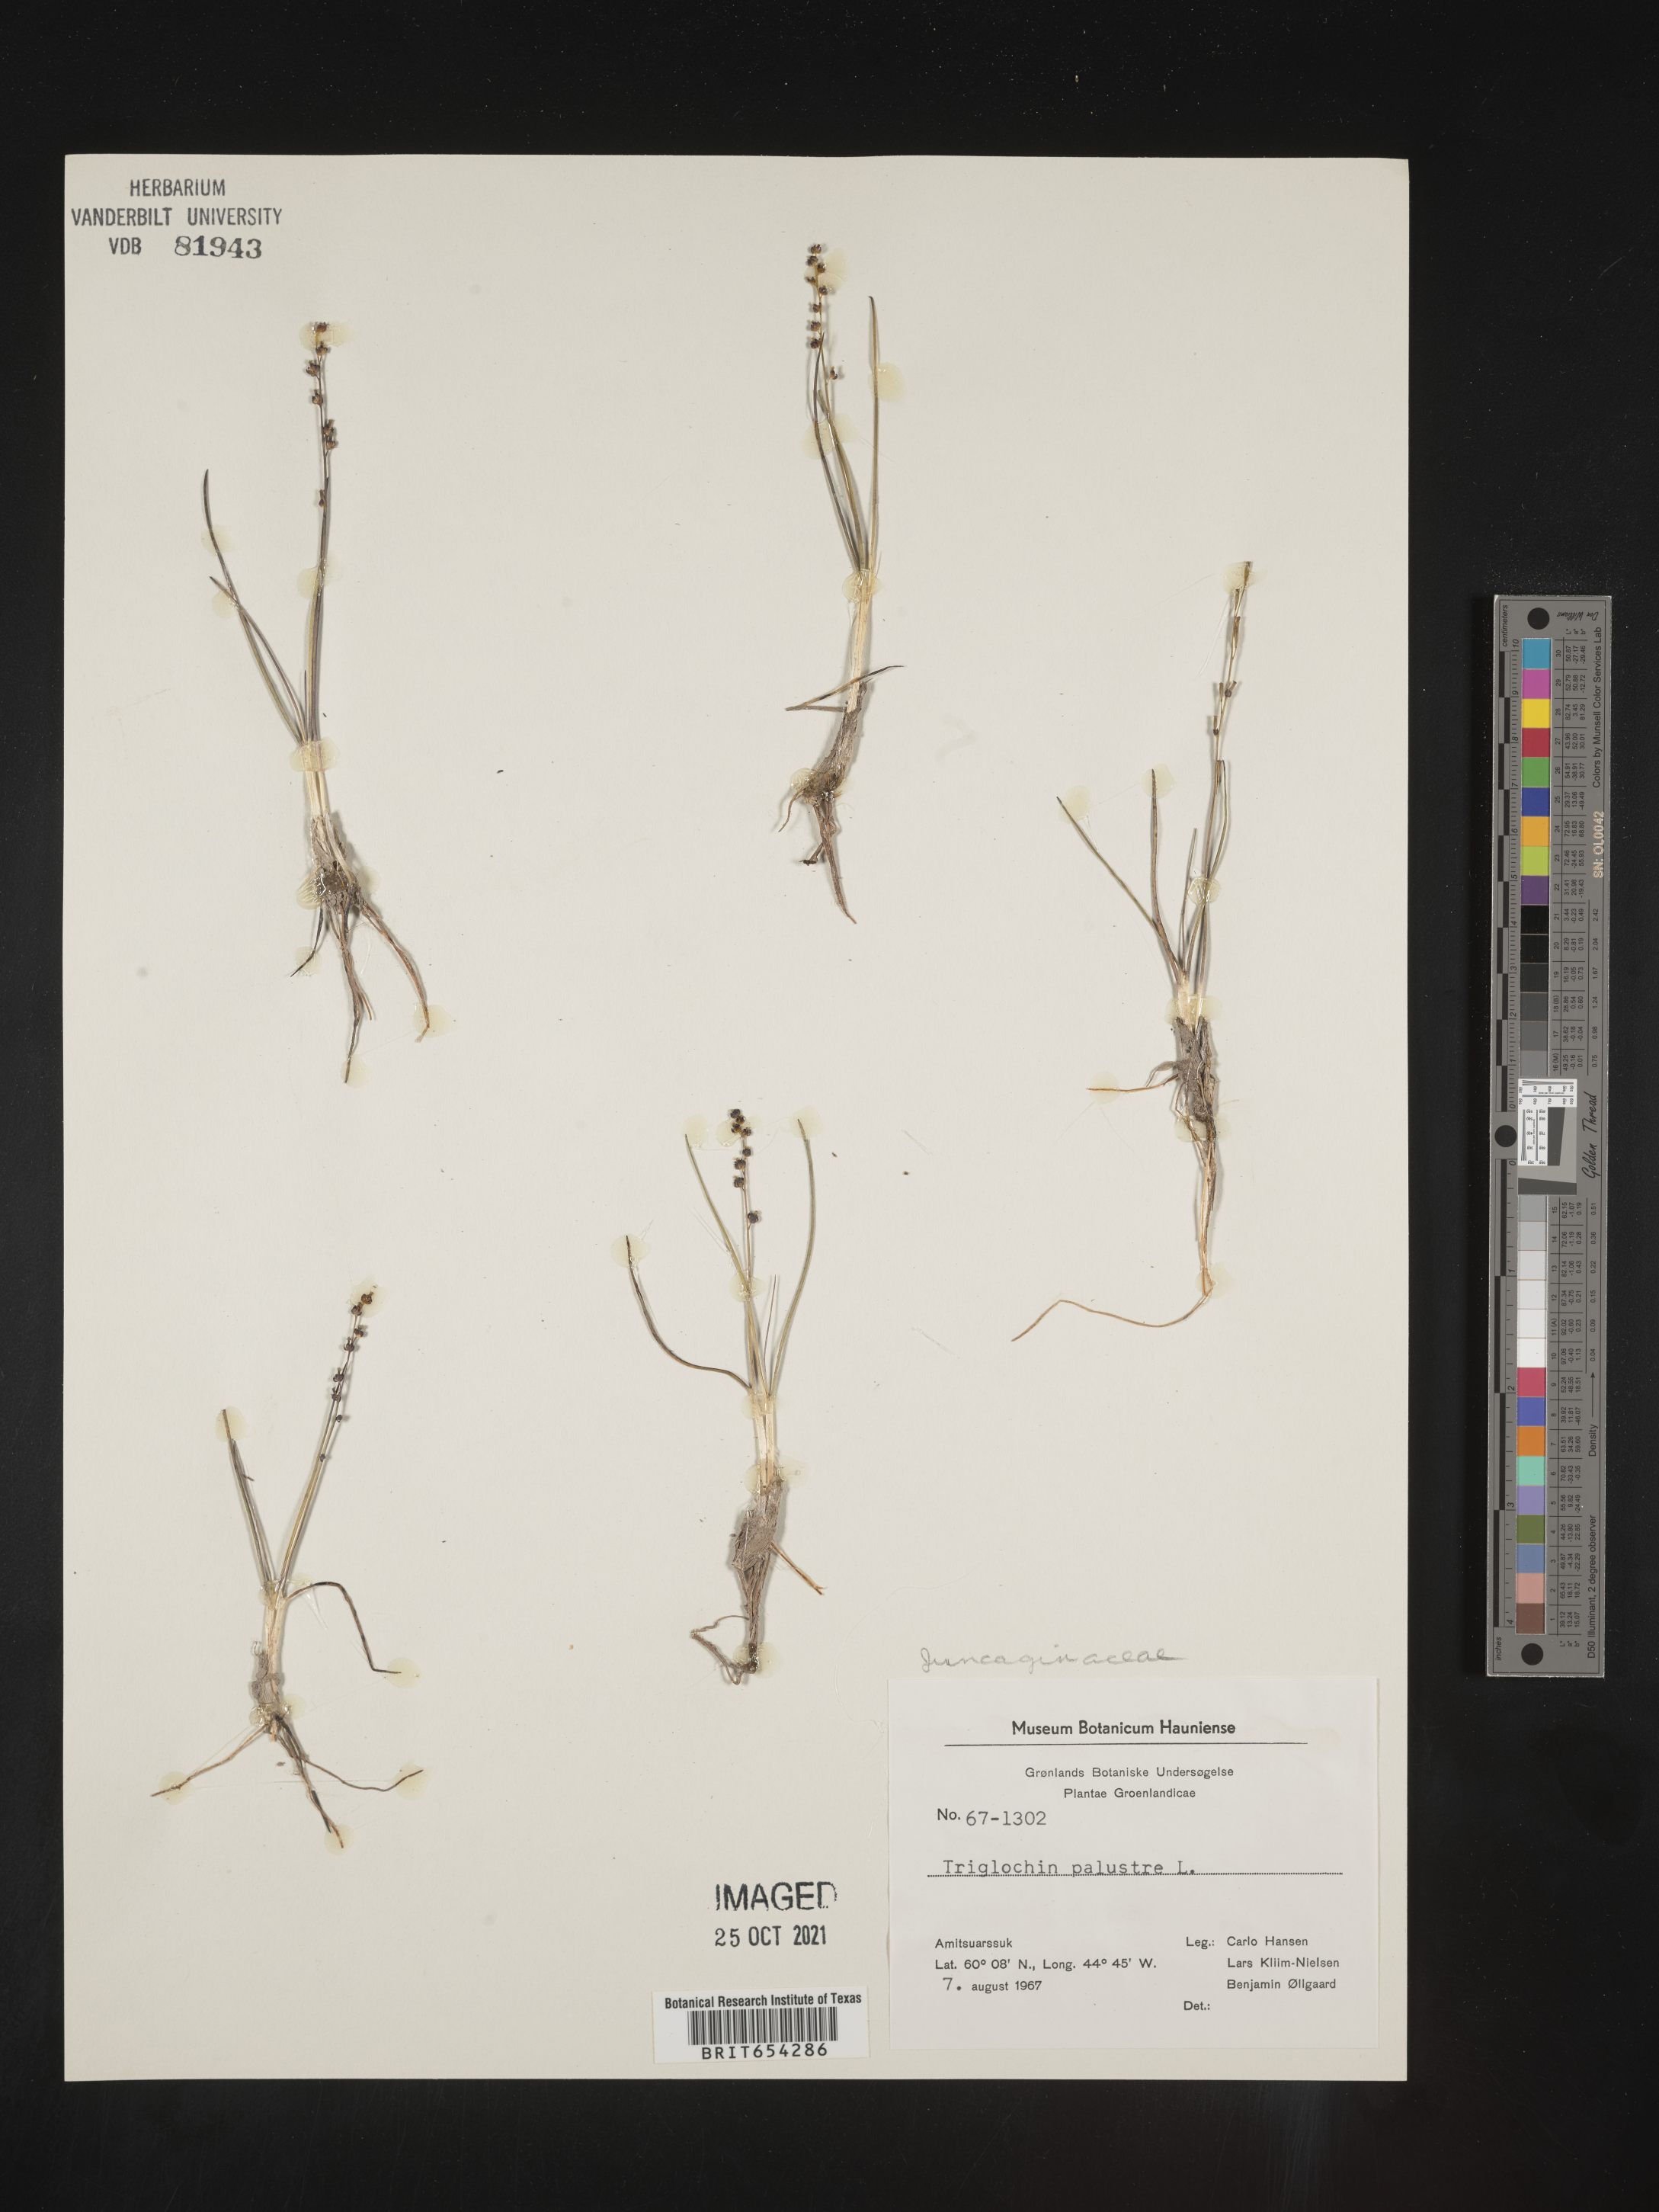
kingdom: Plantae
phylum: Tracheophyta
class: Liliopsida
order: Alismatales
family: Juncaginaceae
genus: Triglochin
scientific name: Triglochin
